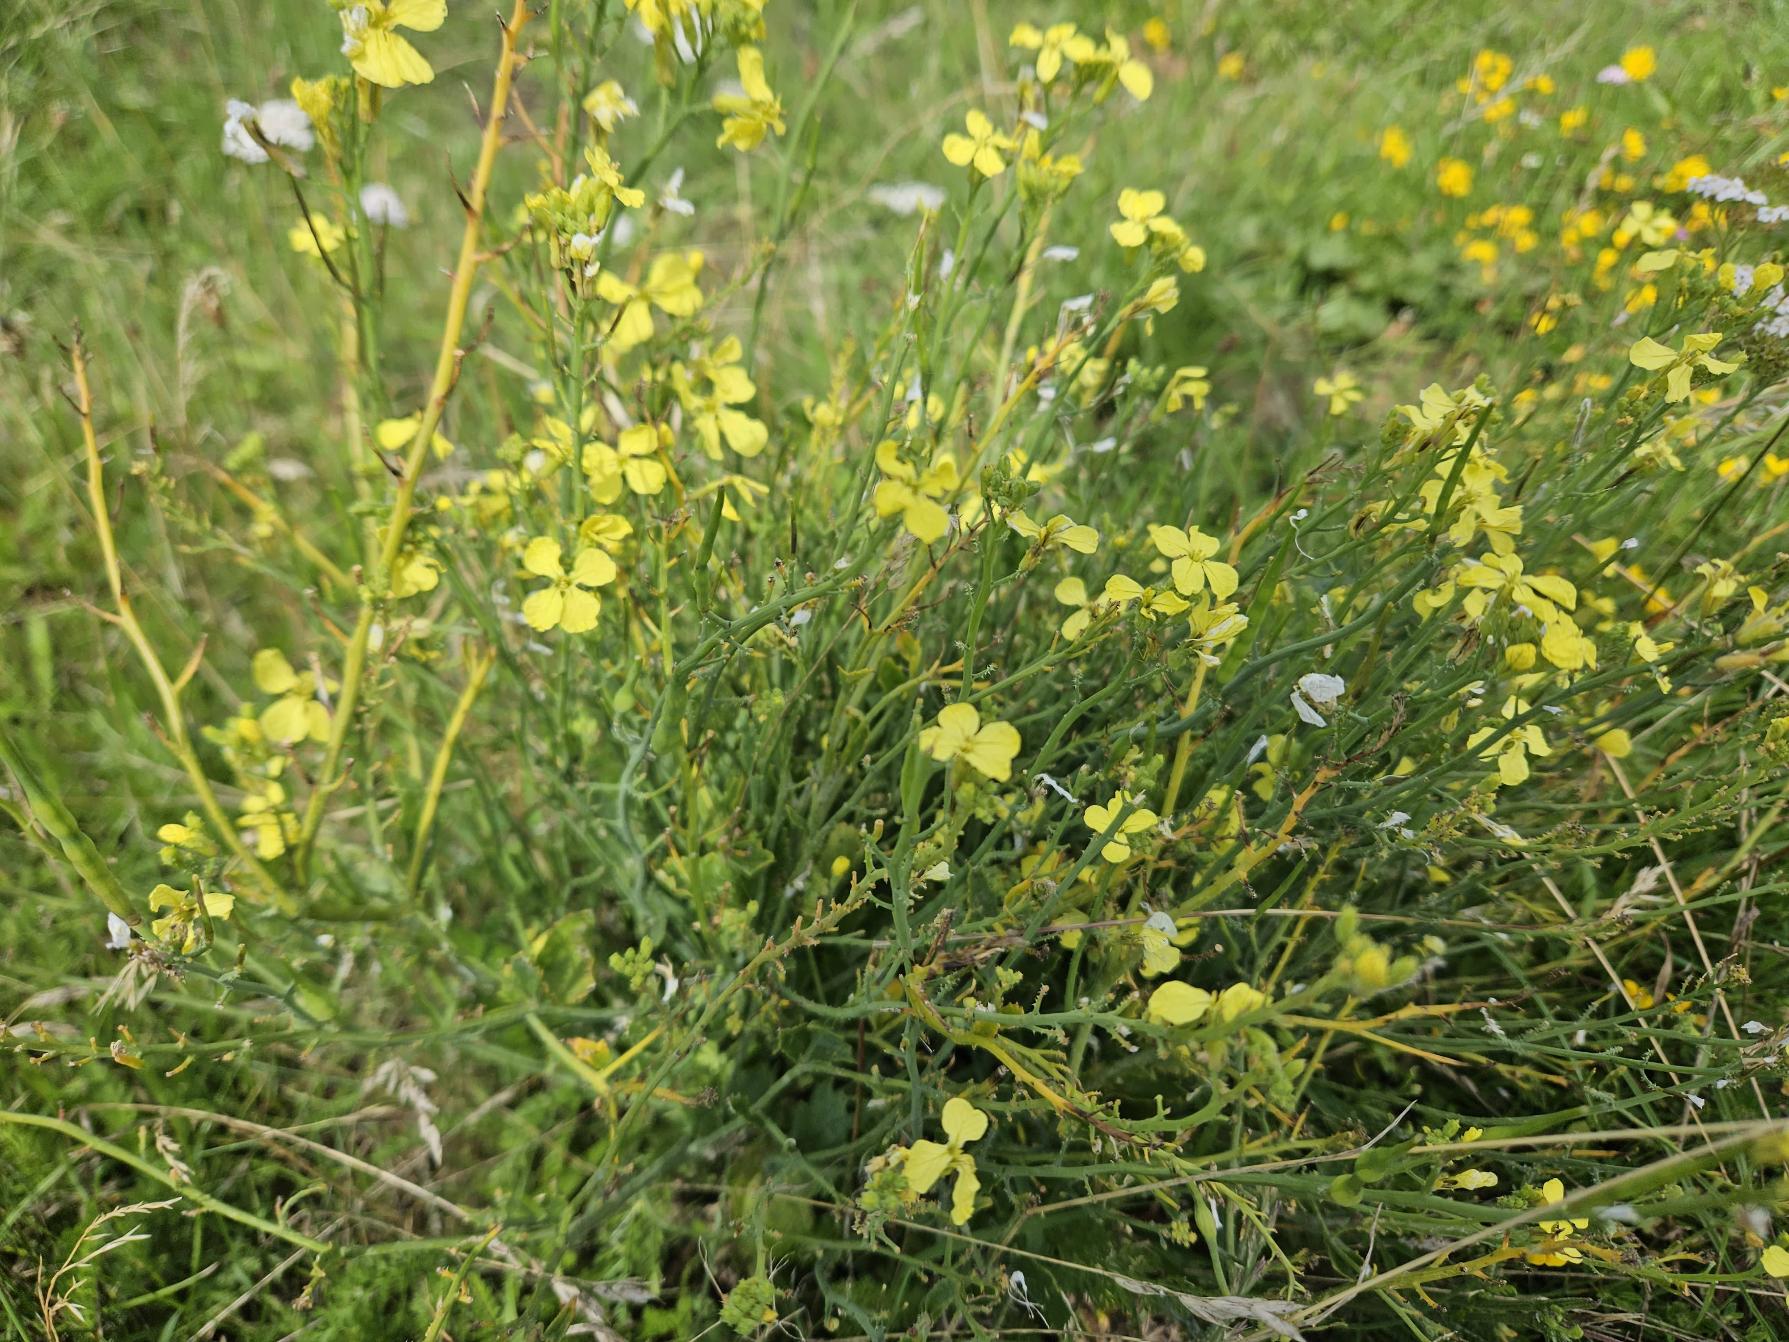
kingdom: Plantae
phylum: Tracheophyta
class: Magnoliopsida
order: Brassicales
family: Brassicaceae
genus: Raphanus
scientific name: Raphanus raphanistrum
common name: Kiddike
